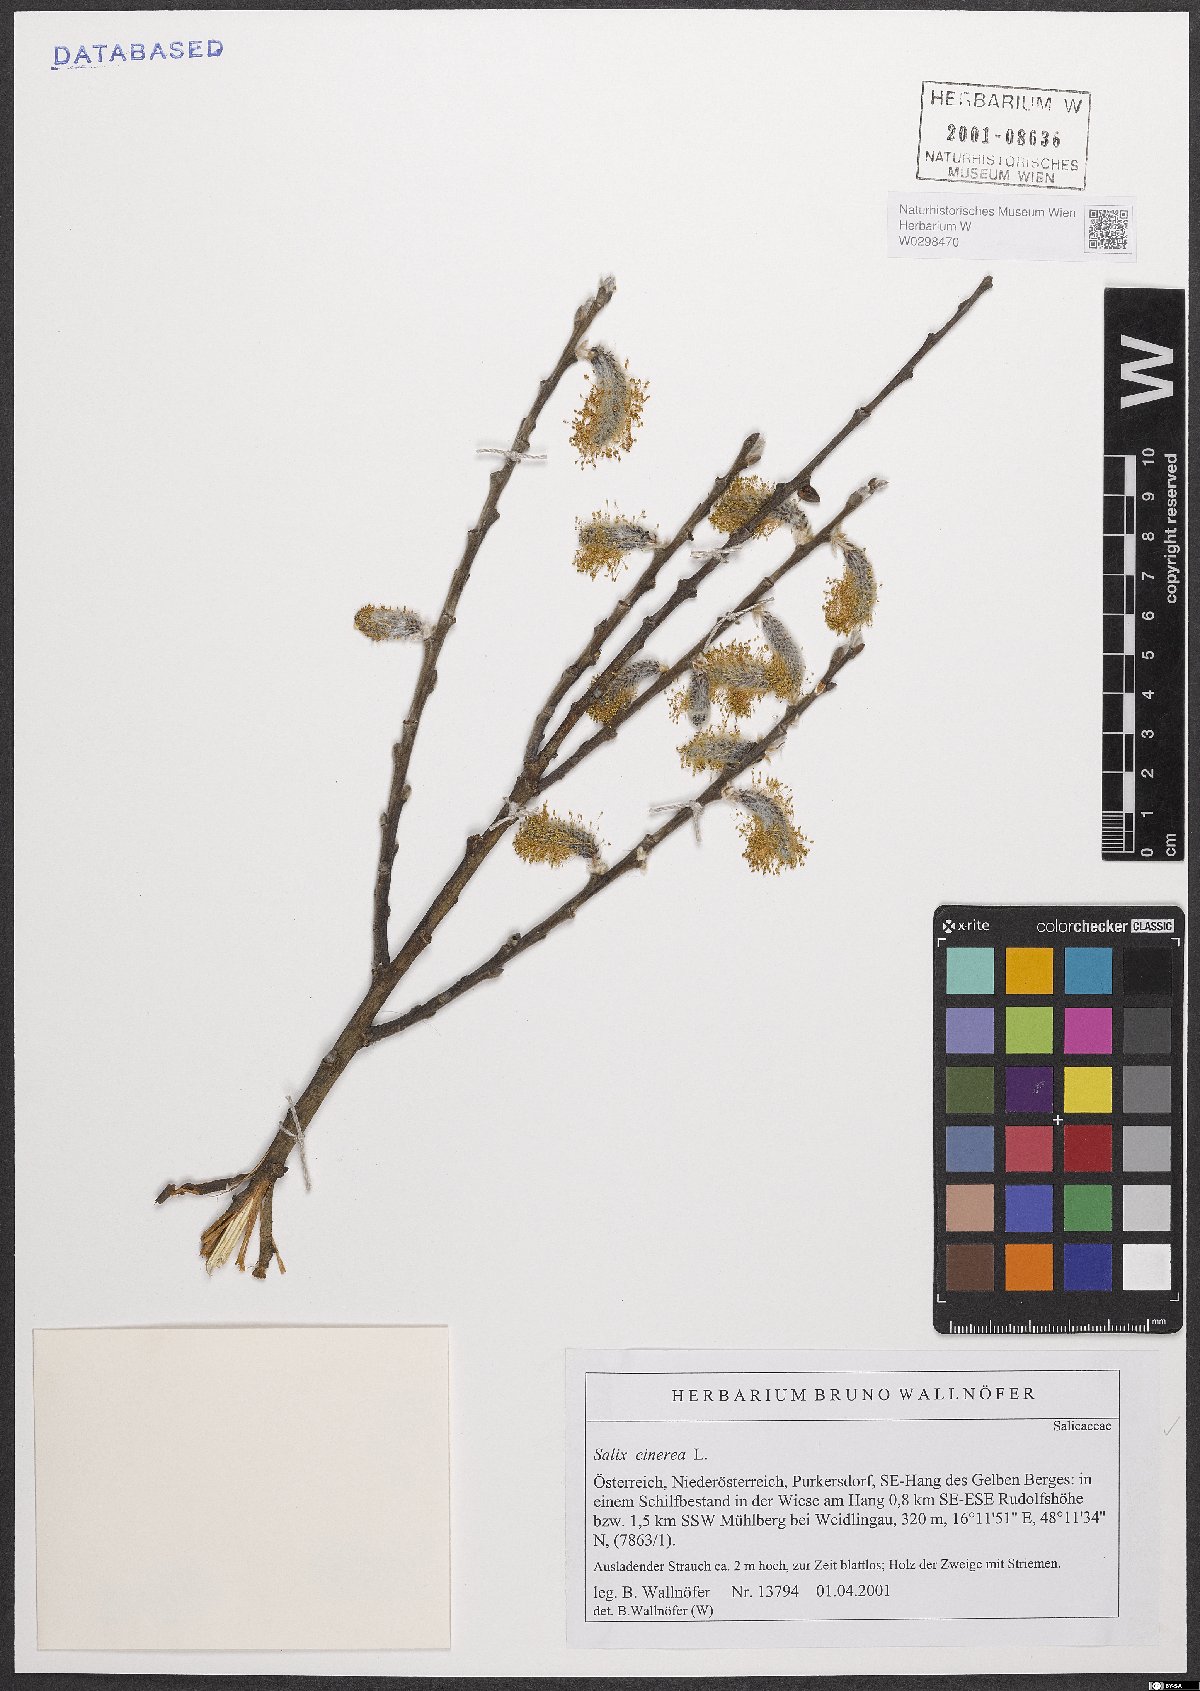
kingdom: Plantae
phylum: Tracheophyta
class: Magnoliopsida
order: Malpighiales
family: Salicaceae
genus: Salix
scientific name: Salix cinerea
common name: Common sallow
